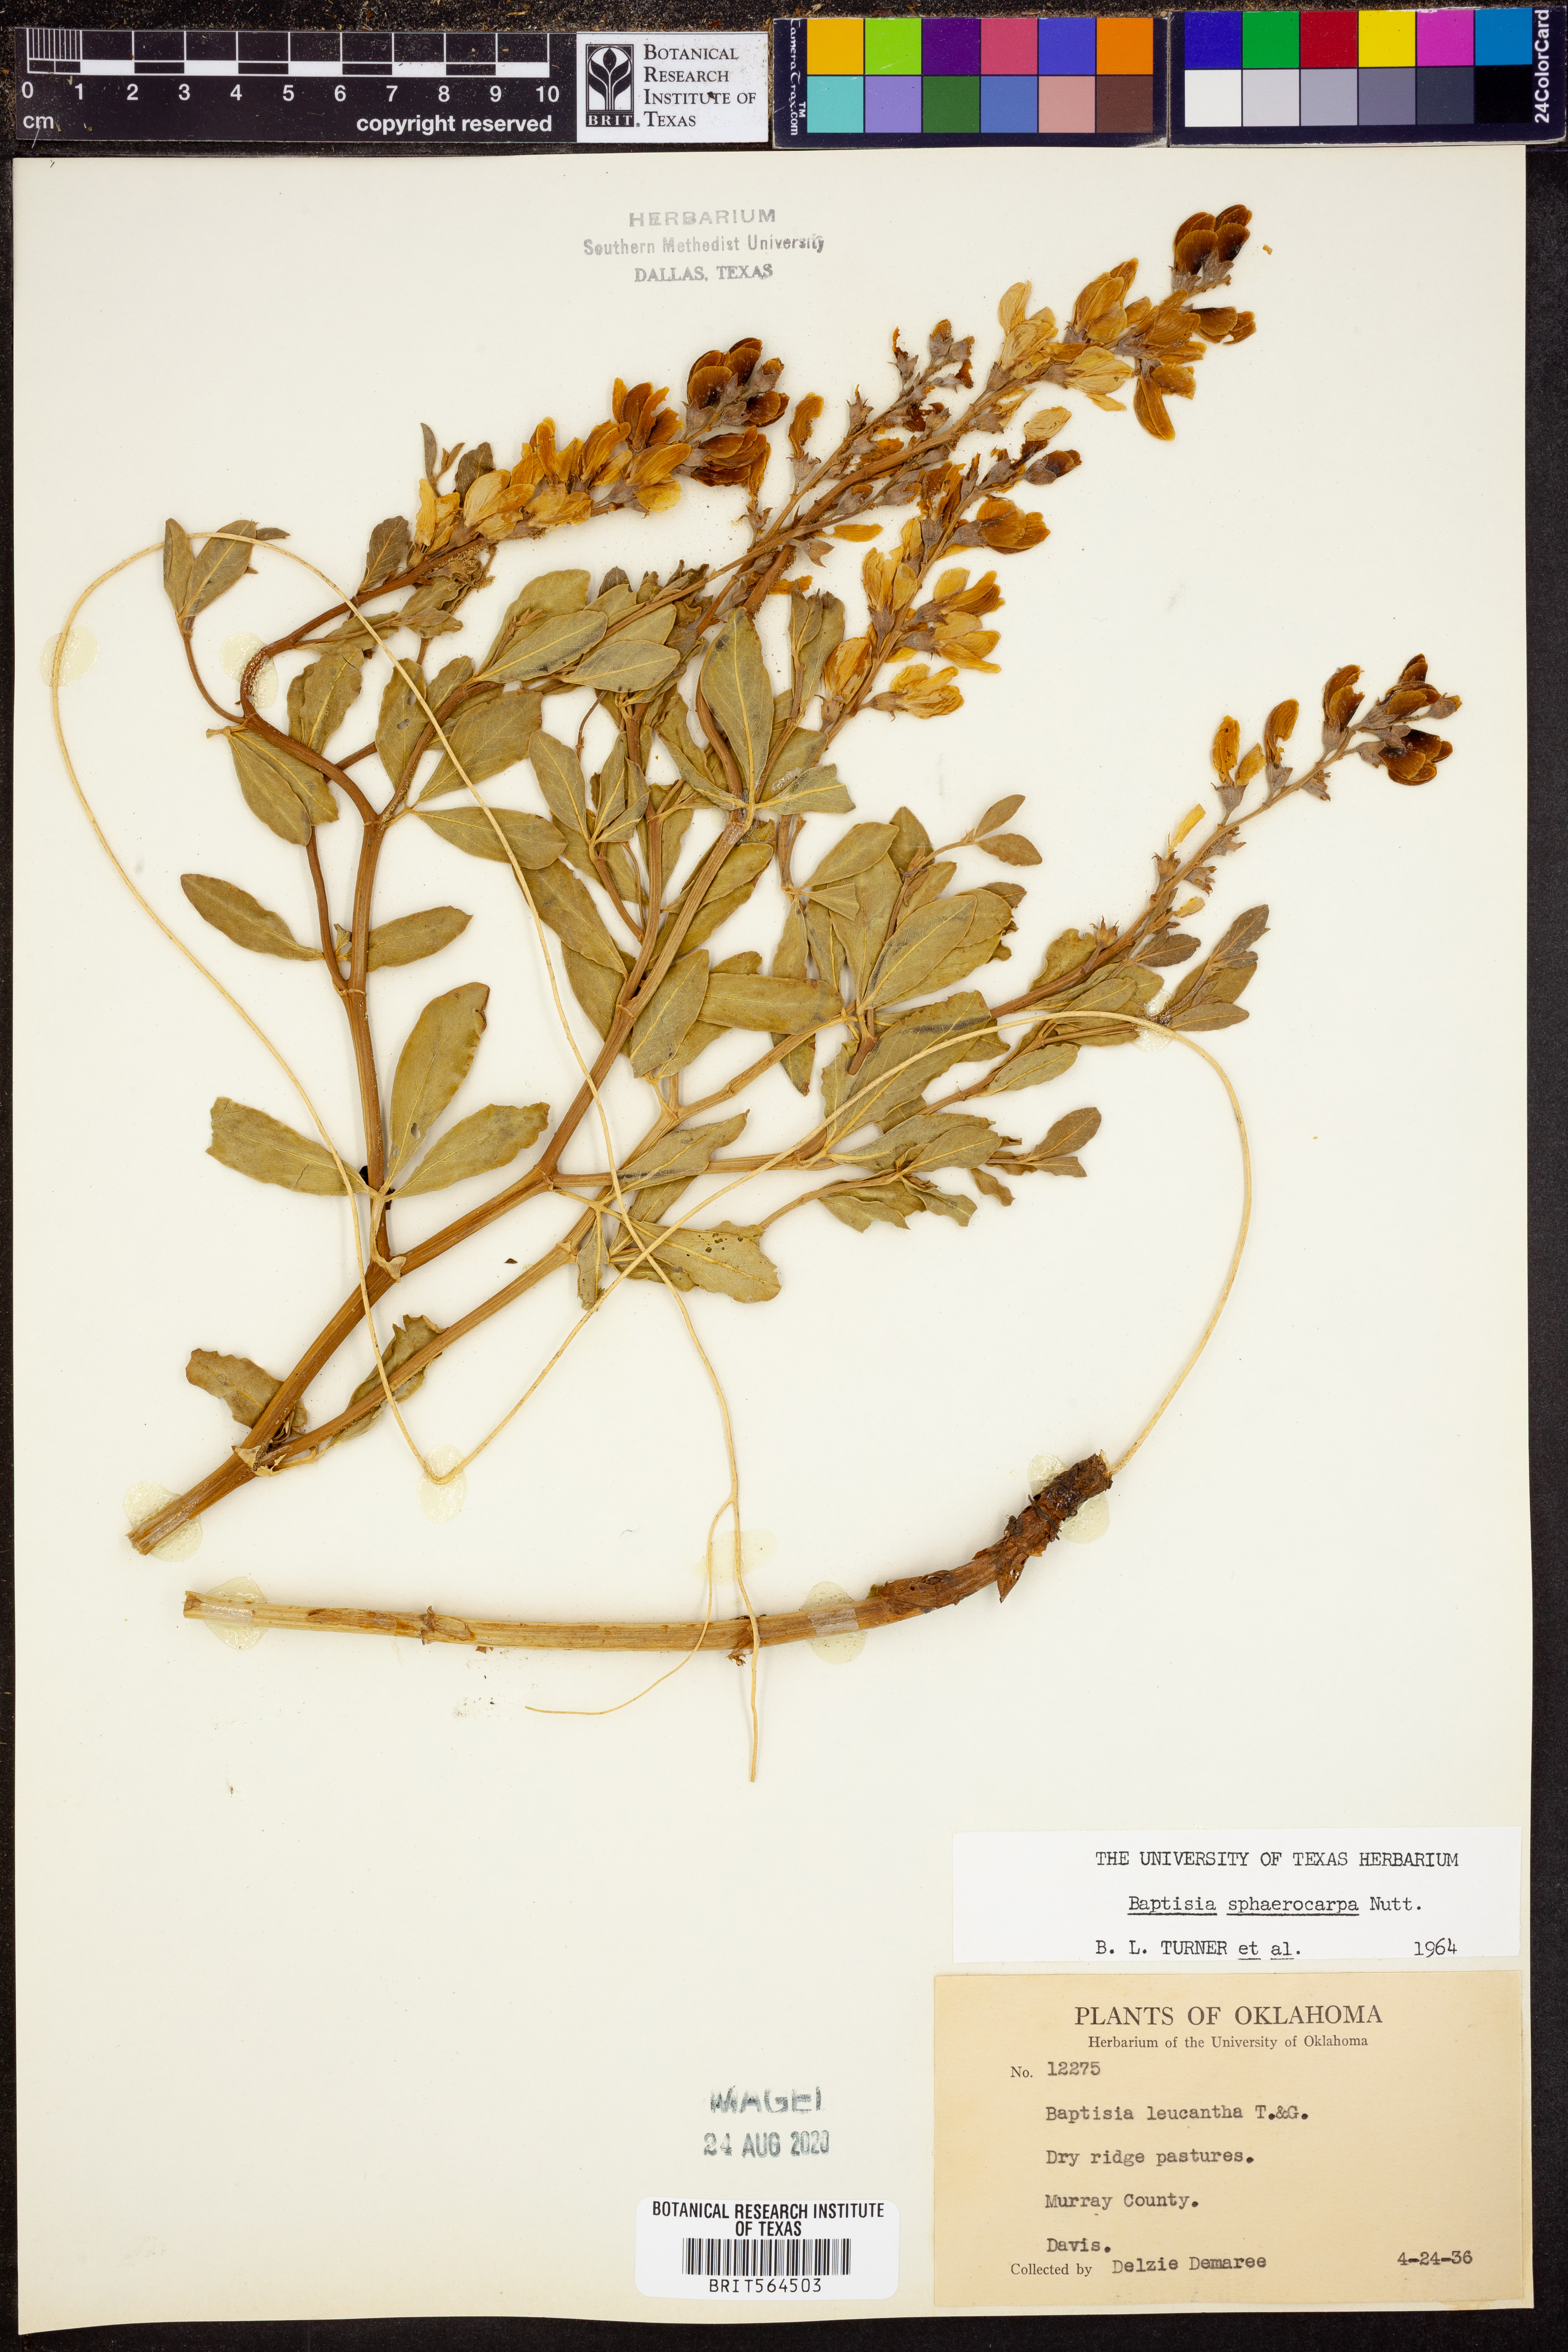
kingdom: Plantae
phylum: Tracheophyta
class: Magnoliopsida
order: Fabales
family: Fabaceae
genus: Baptisia
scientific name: Baptisia sphaerocarpa
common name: Round wild indigo
